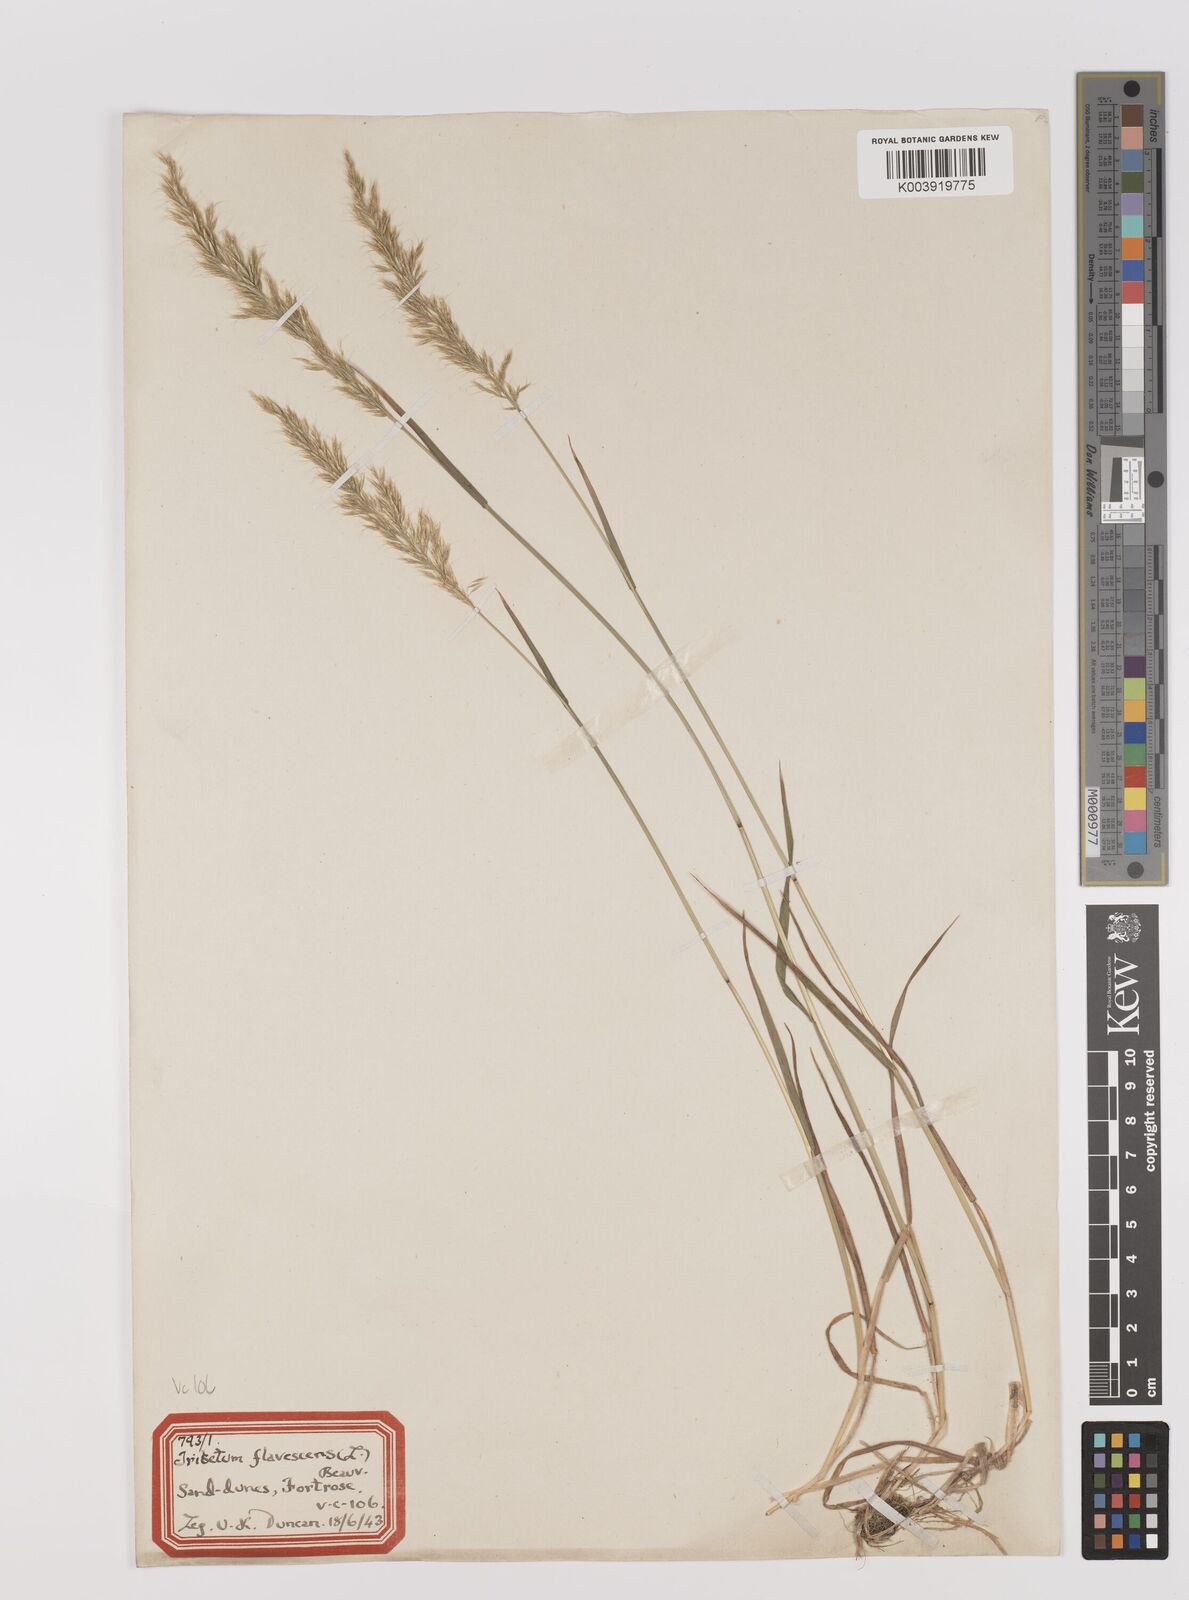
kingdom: Plantae
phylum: Tracheophyta
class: Liliopsida
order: Poales
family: Poaceae
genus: Trisetum
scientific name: Trisetum flavescens
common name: Yellow oat-grass
